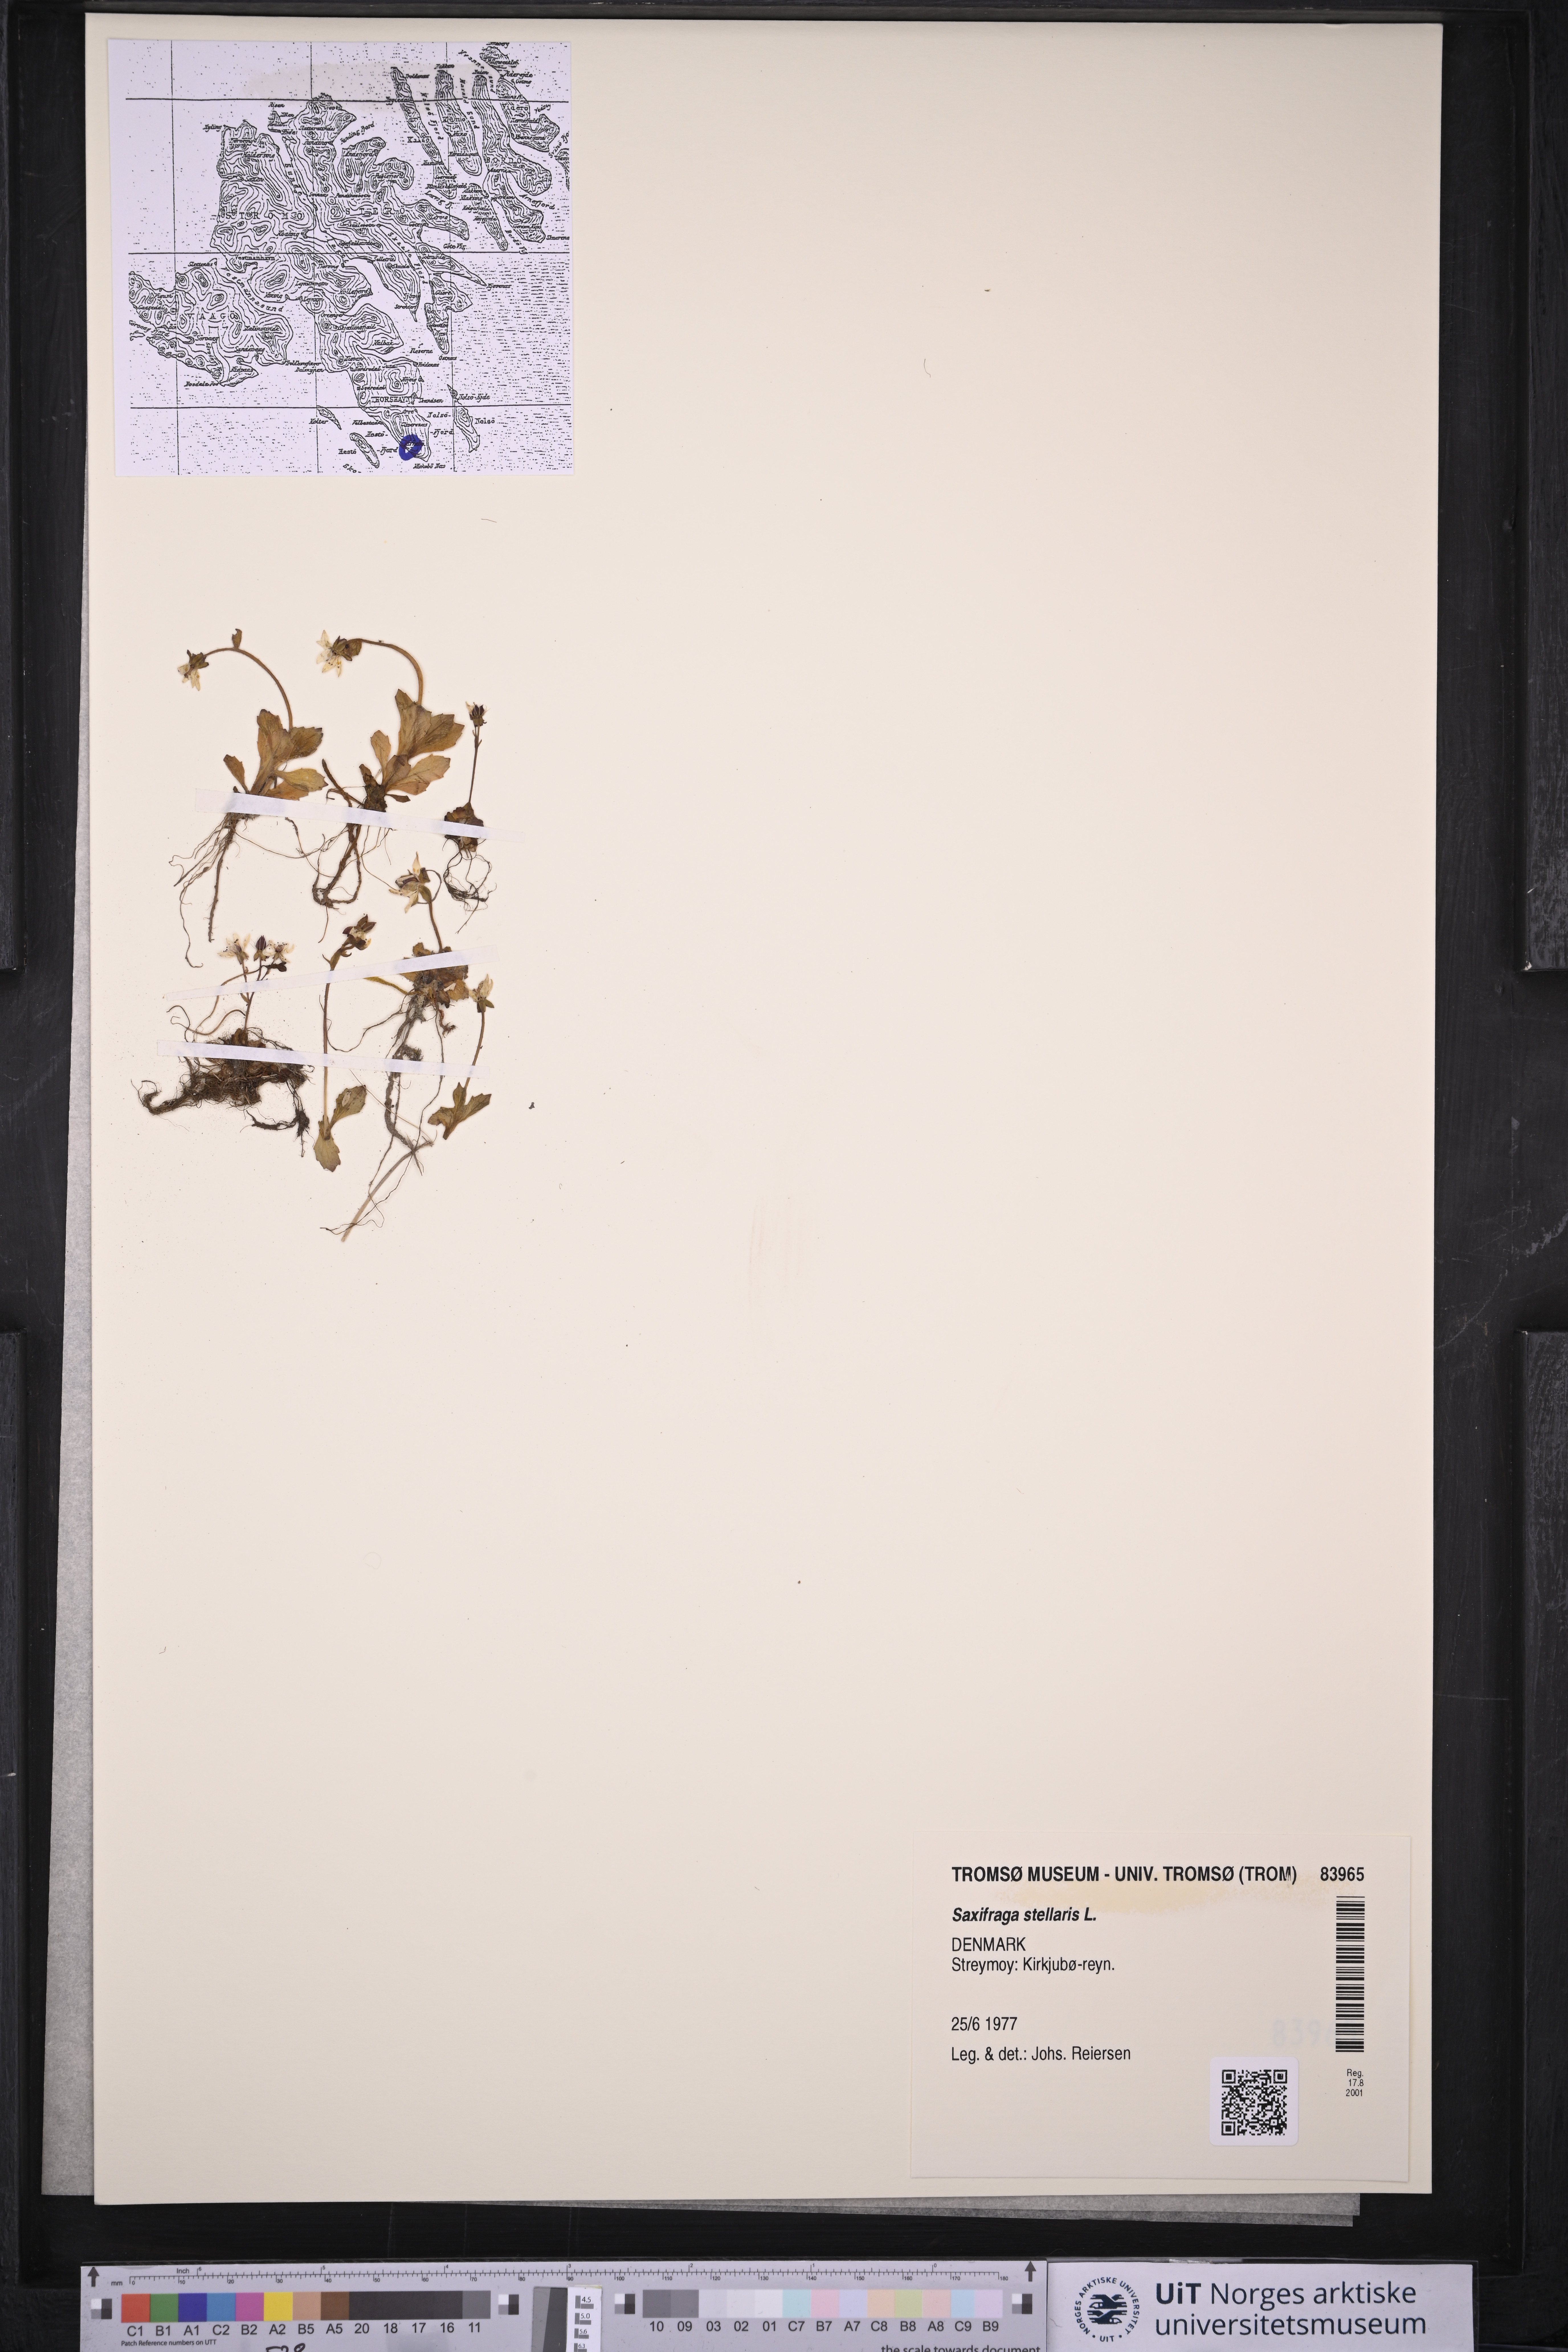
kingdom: Plantae
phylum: Tracheophyta
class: Magnoliopsida
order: Saxifragales
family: Saxifragaceae
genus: Micranthes
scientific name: Micranthes stellaris
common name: Starry saxifrage
